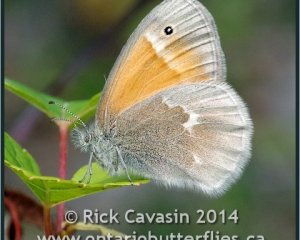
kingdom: Animalia
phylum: Arthropoda
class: Insecta
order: Lepidoptera
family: Nymphalidae
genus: Coenonympha
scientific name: Coenonympha tullia
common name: Large Heath
